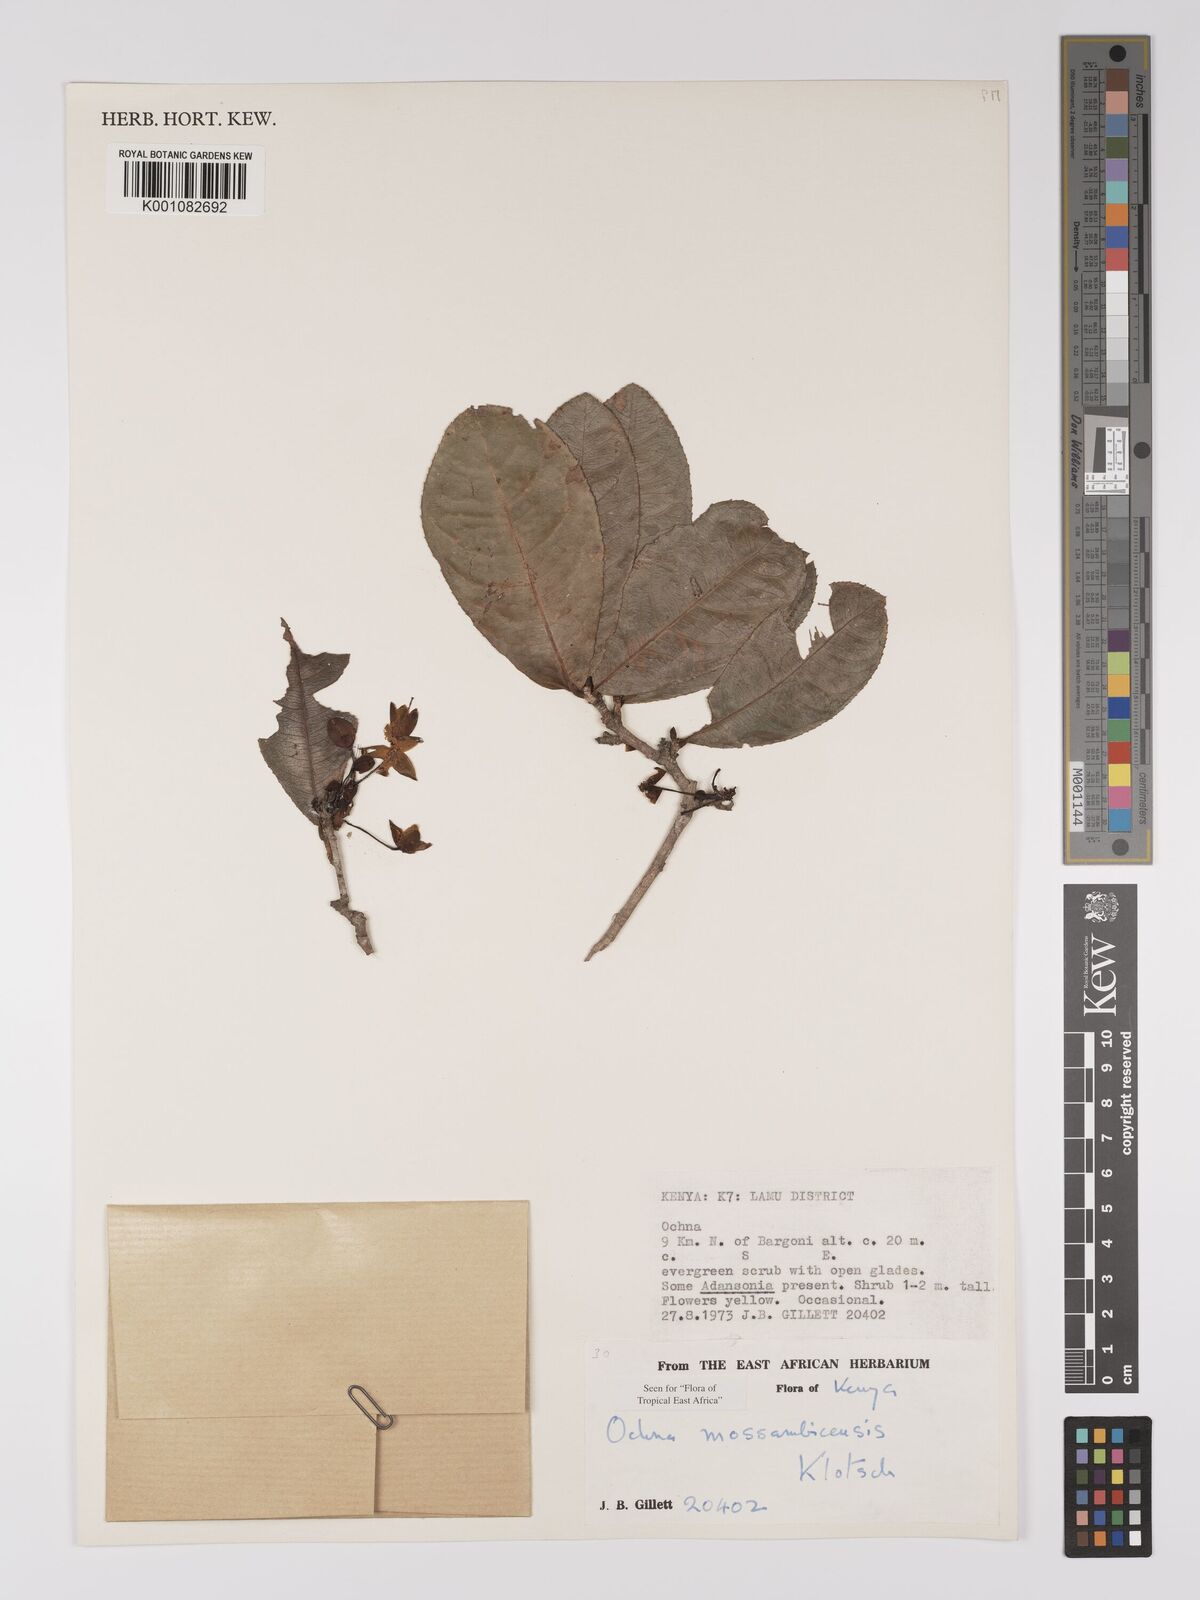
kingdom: Plantae
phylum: Tracheophyta
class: Magnoliopsida
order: Malpighiales
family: Ochnaceae
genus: Ochna
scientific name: Ochna atropurpurea
